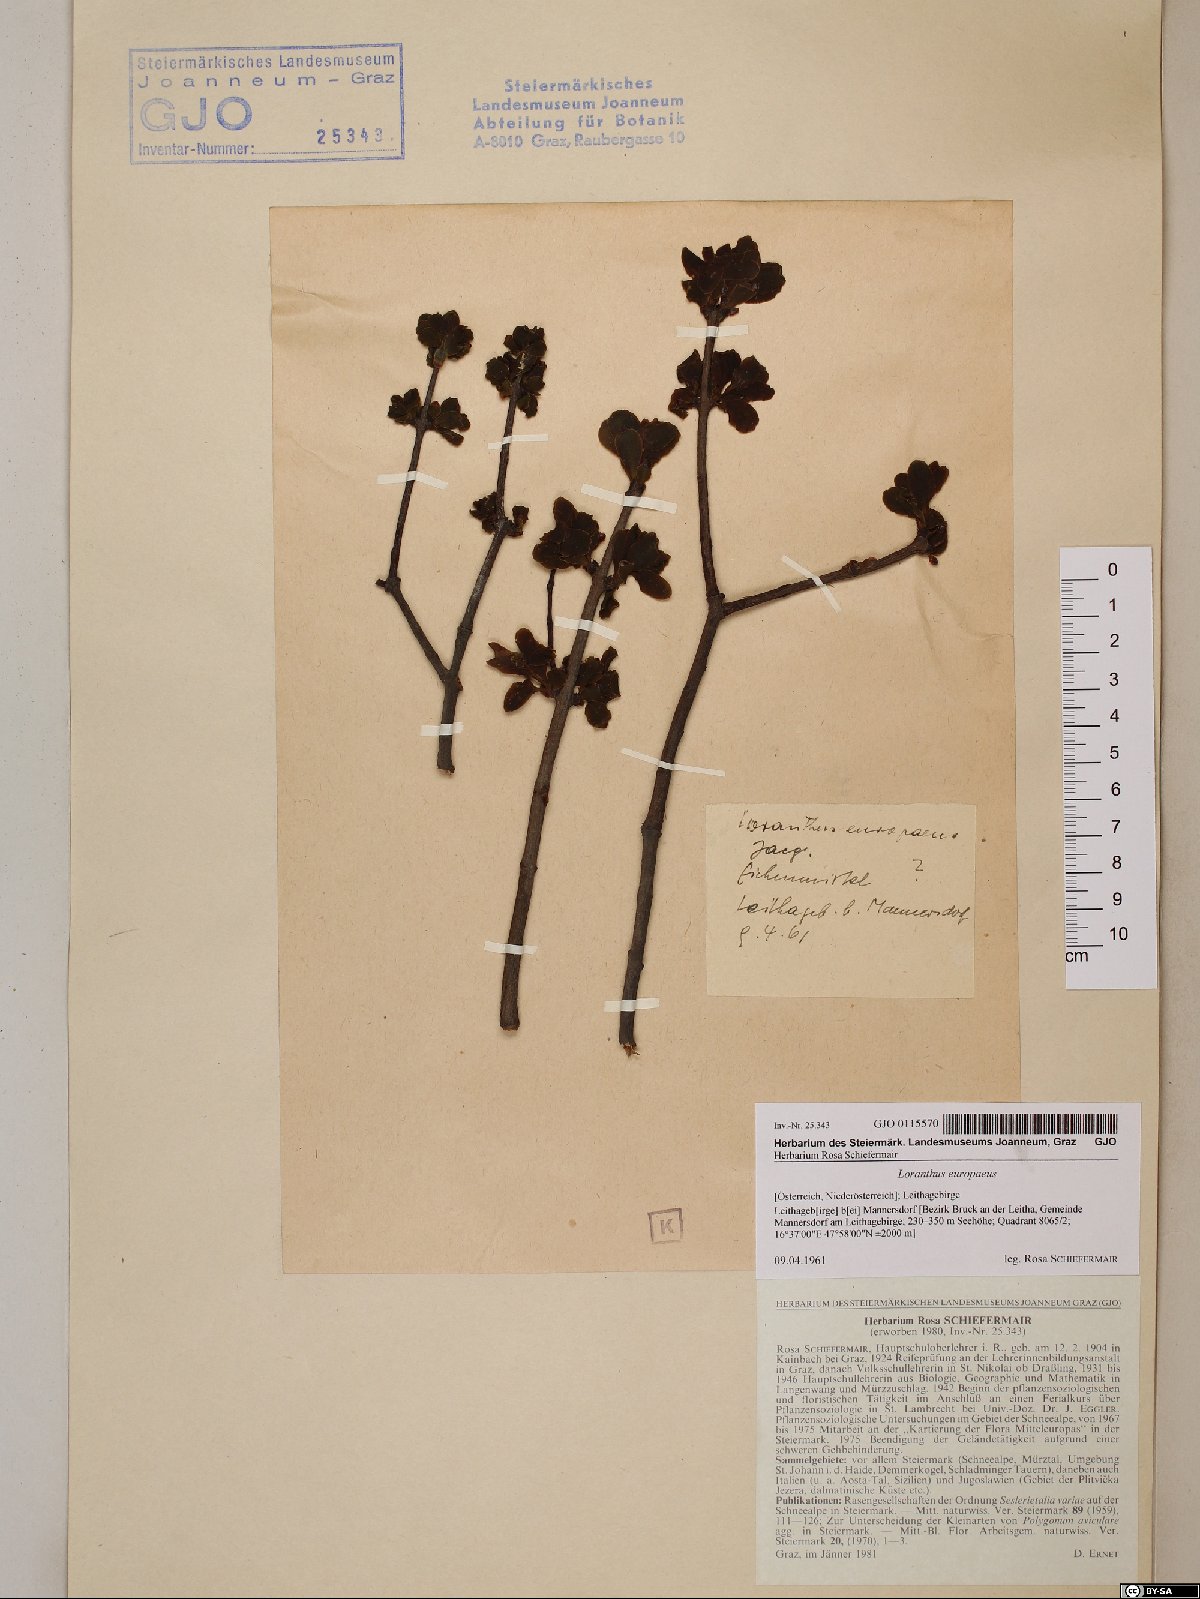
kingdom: Plantae
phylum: Tracheophyta
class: Magnoliopsida
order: Santalales
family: Loranthaceae
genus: Loranthus
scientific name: Loranthus europaeus
